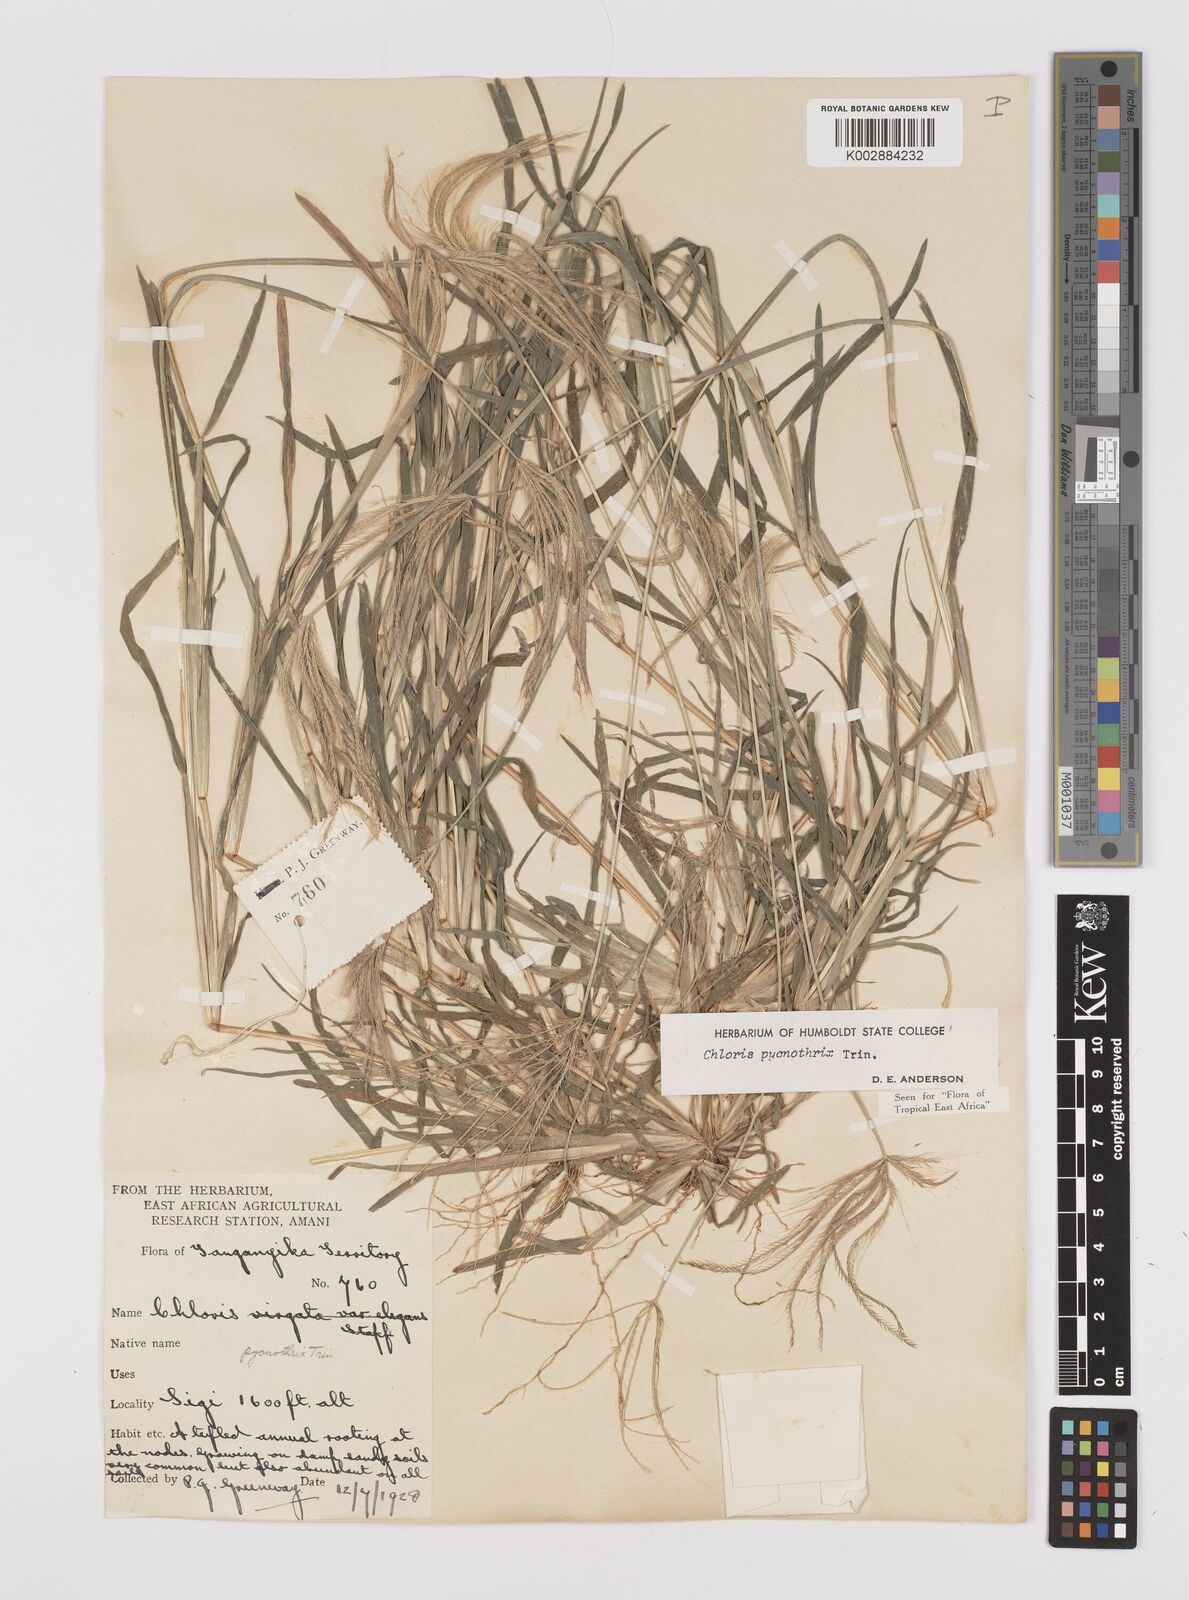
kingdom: Plantae
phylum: Tracheophyta
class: Liliopsida
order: Poales
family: Poaceae
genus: Chloris
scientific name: Chloris pycnothrix
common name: Spiderweb chloris
